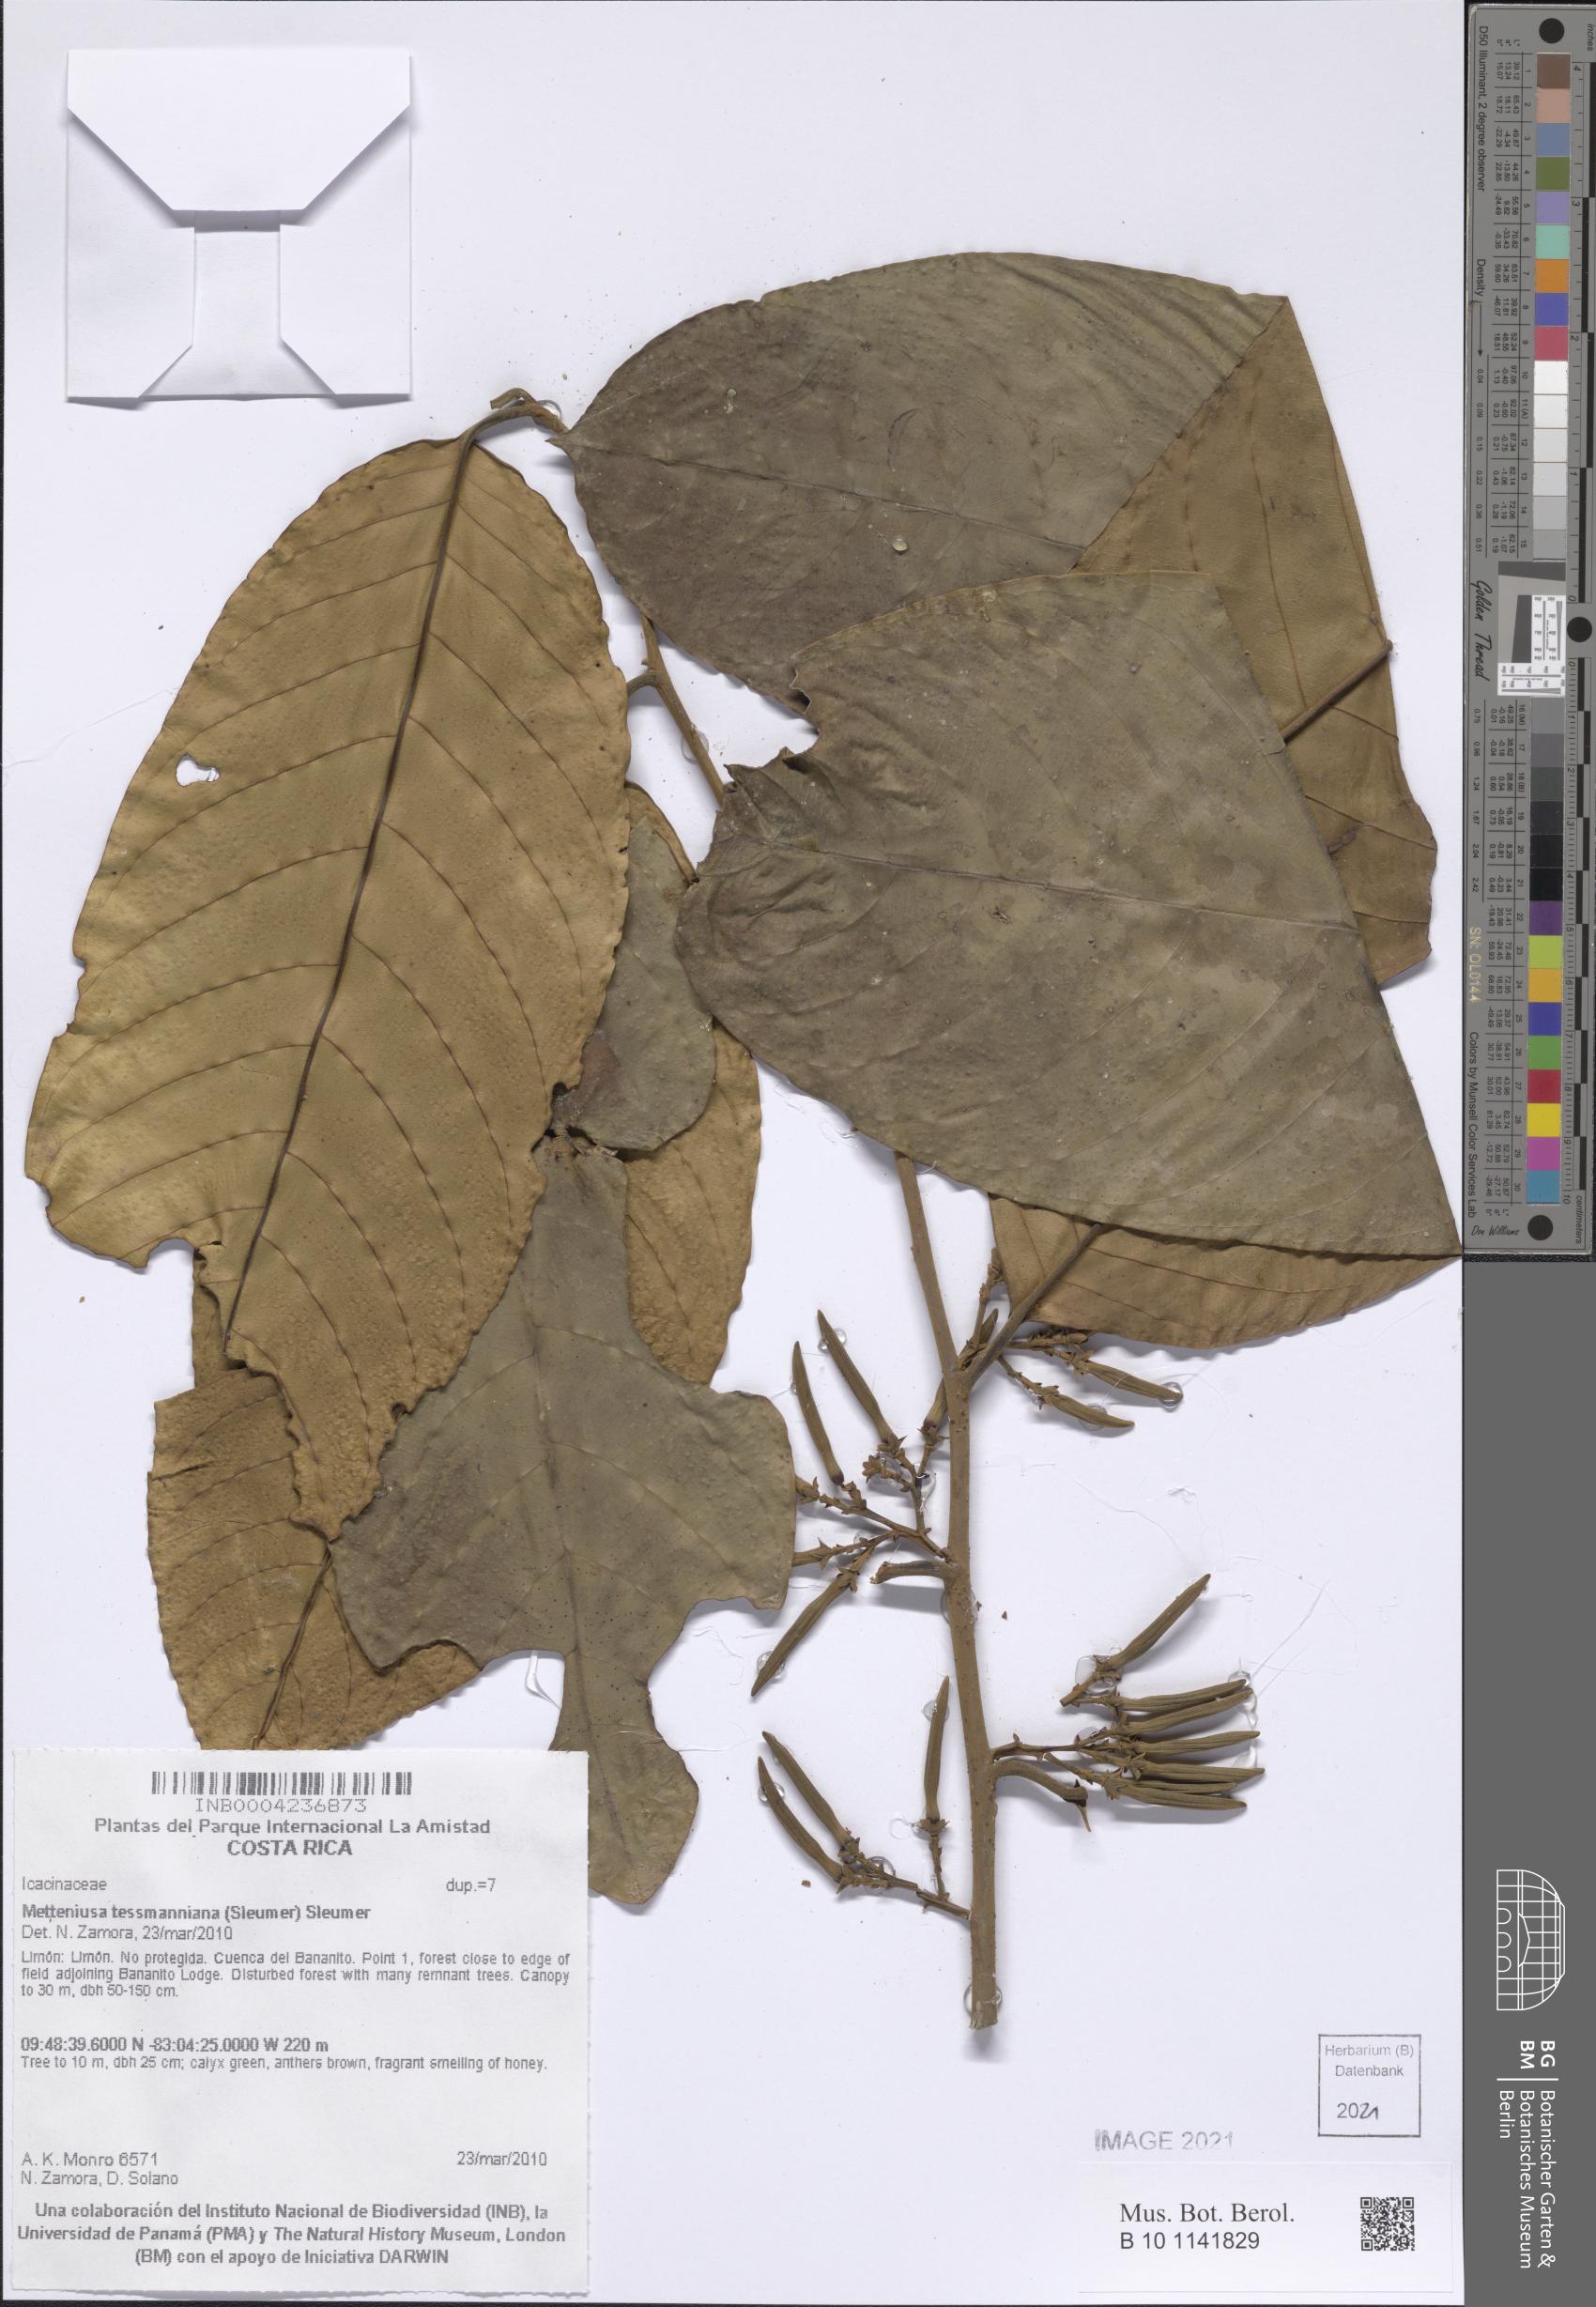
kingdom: Plantae
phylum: Tracheophyta
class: Magnoliopsida
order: Metteniusales
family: Metteniusaceae
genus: Metteniusa
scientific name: Metteniusa tessmanniana
